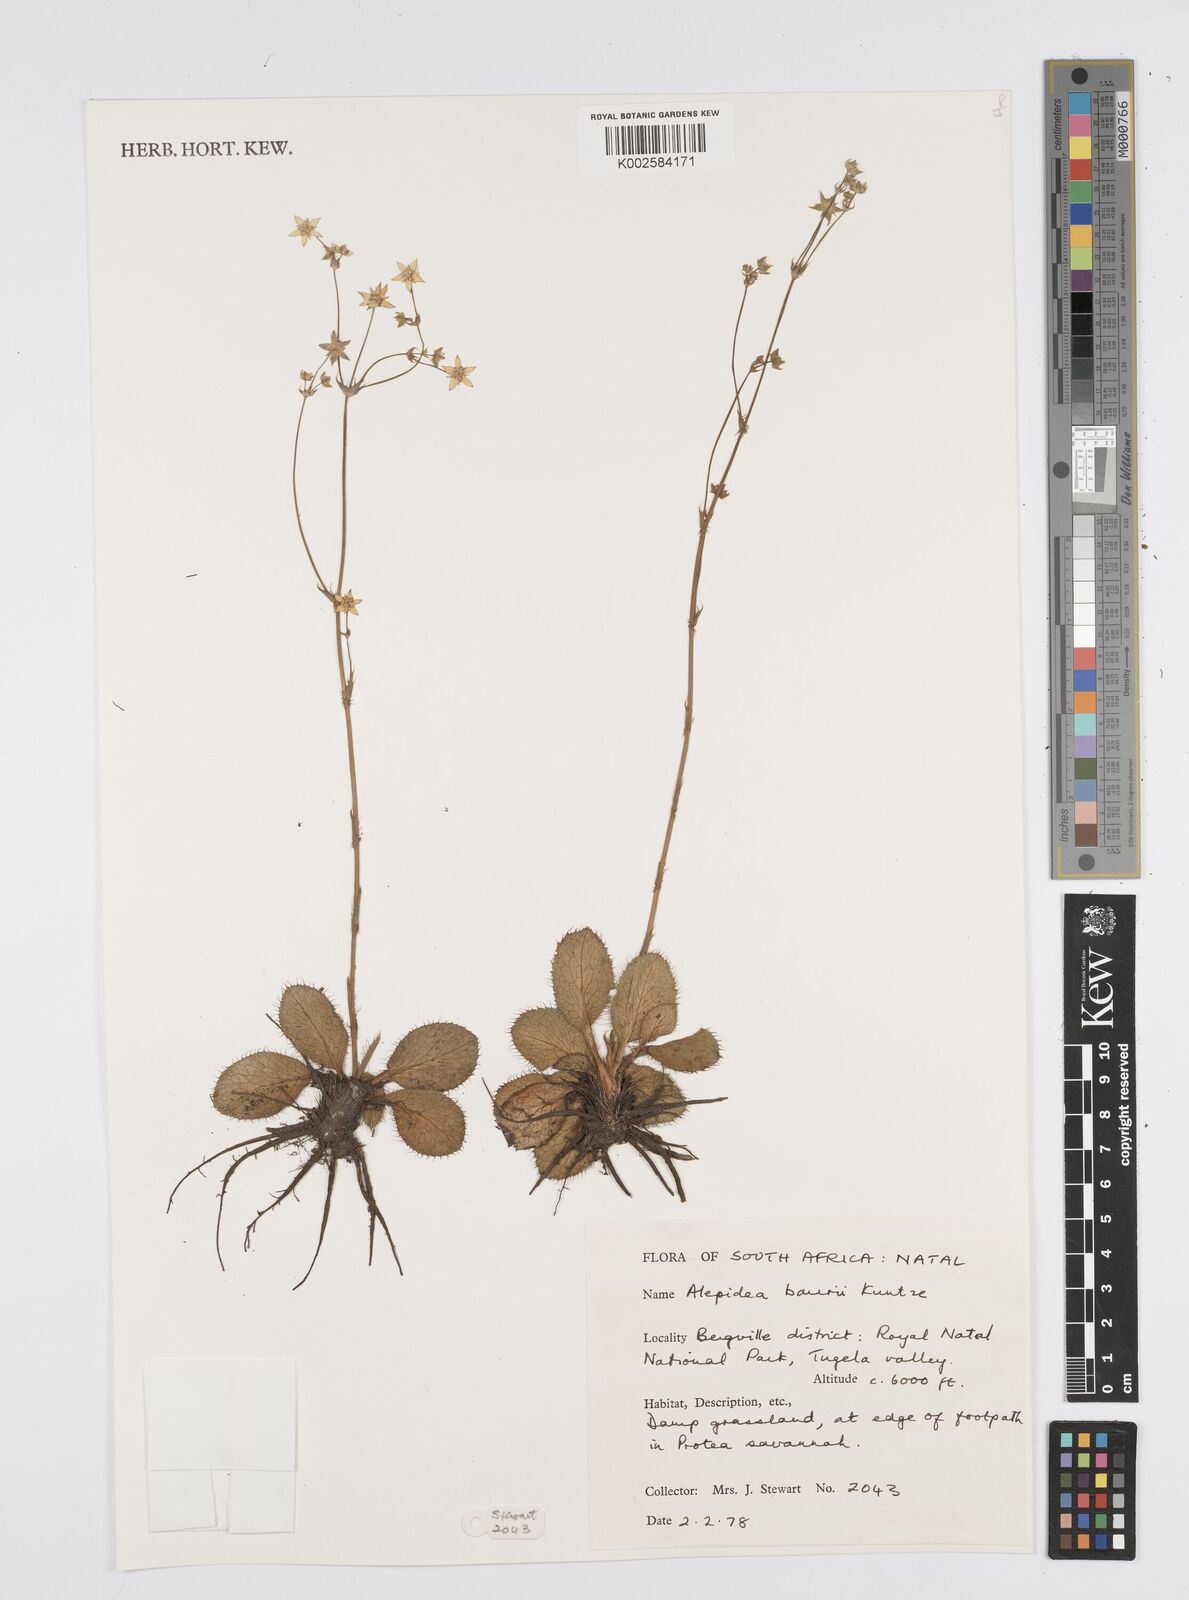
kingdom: Plantae
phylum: Tracheophyta
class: Magnoliopsida
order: Apiales
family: Apiaceae
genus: Alepidea
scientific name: Alepidea natalensis
